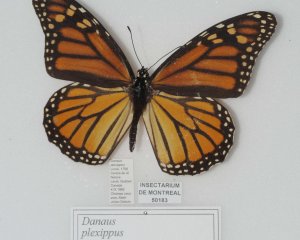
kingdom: Animalia
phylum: Arthropoda
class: Insecta
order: Lepidoptera
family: Nymphalidae
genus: Danaus
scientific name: Danaus plexippus
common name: Monarch
